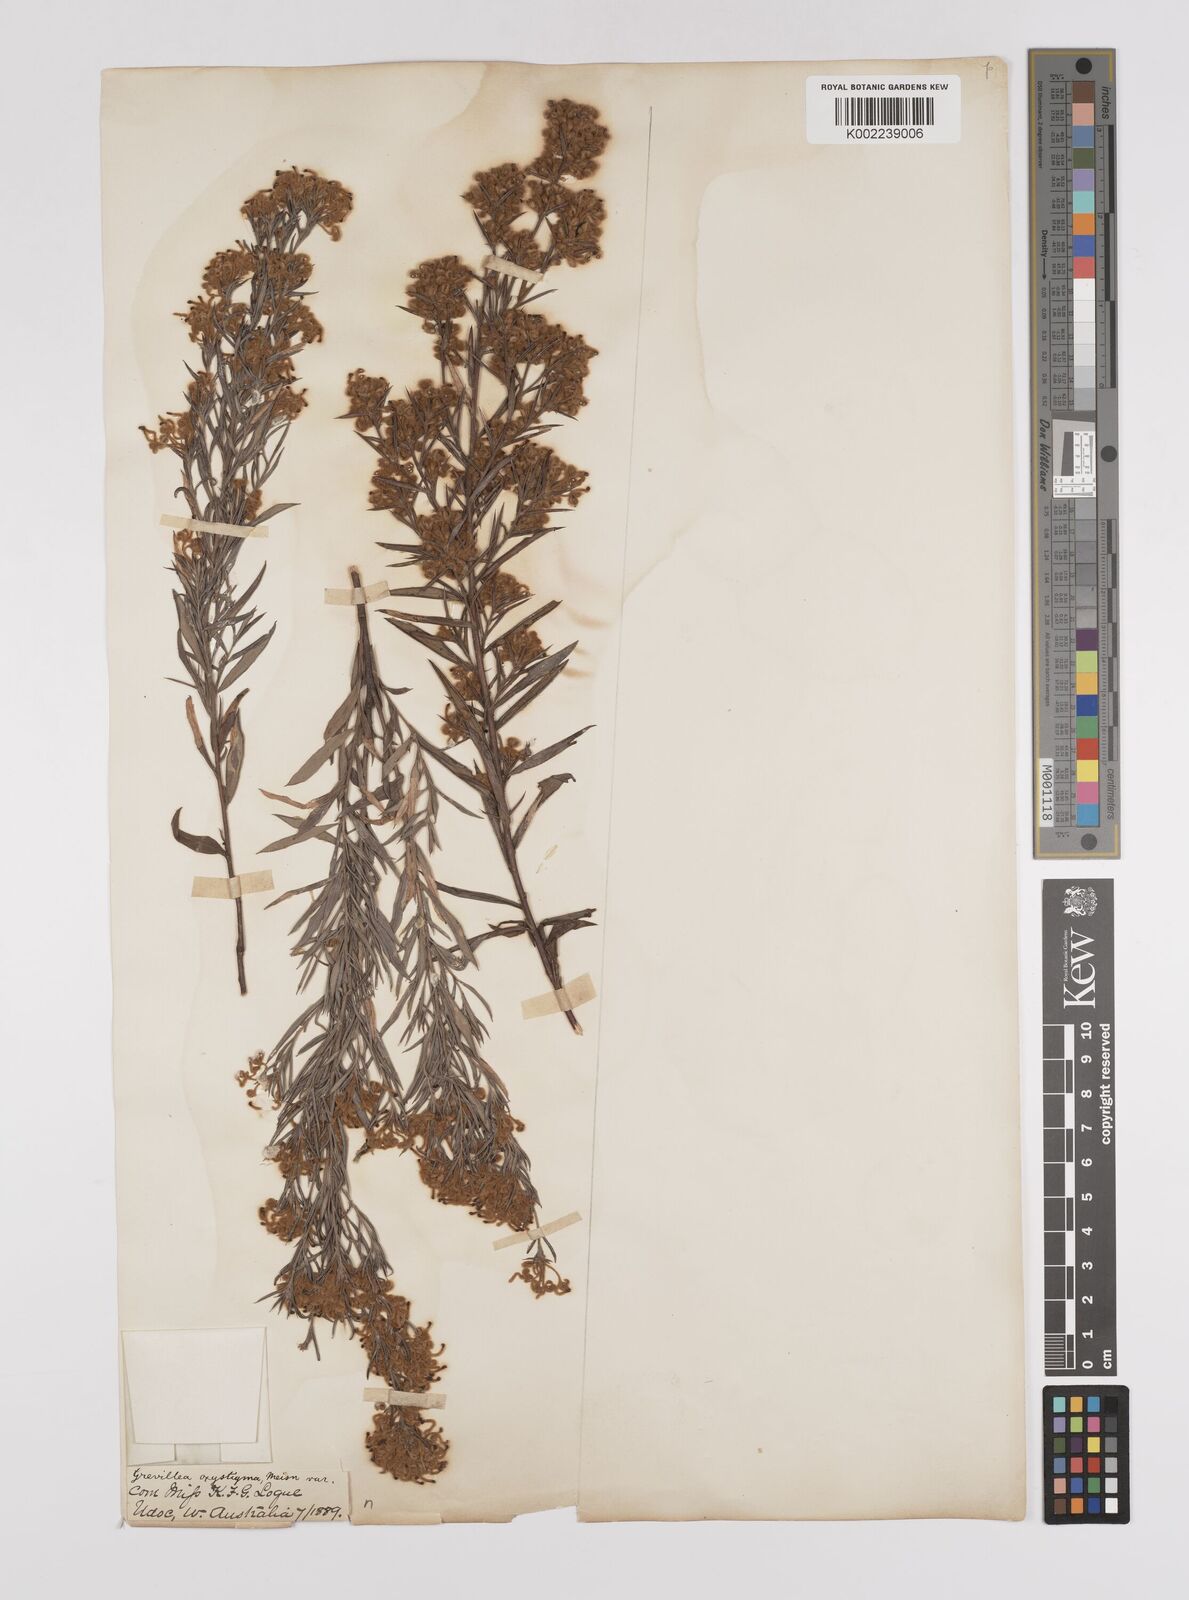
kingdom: Plantae
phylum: Tracheophyta
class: Magnoliopsida
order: Proteales
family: Proteaceae
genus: Grevillea
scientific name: Grevillea pilulifera
